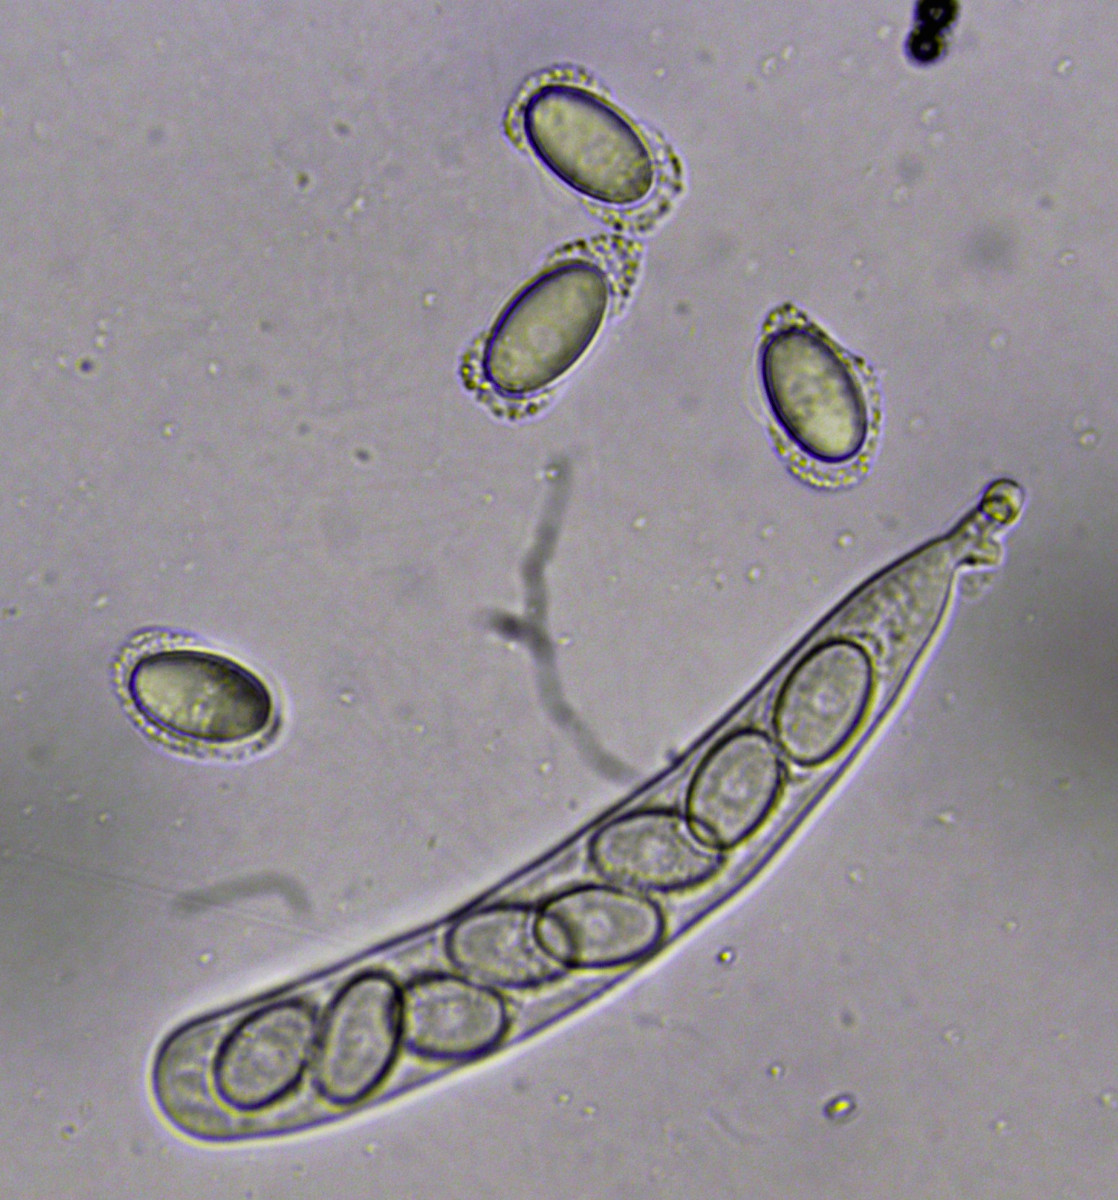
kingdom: Fungi
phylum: Ascomycota
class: Pezizomycetes
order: Pezizales
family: Ascodesmidaceae
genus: Lasiobolus
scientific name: Lasiobolus papillatus
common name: enradet øjebæger
